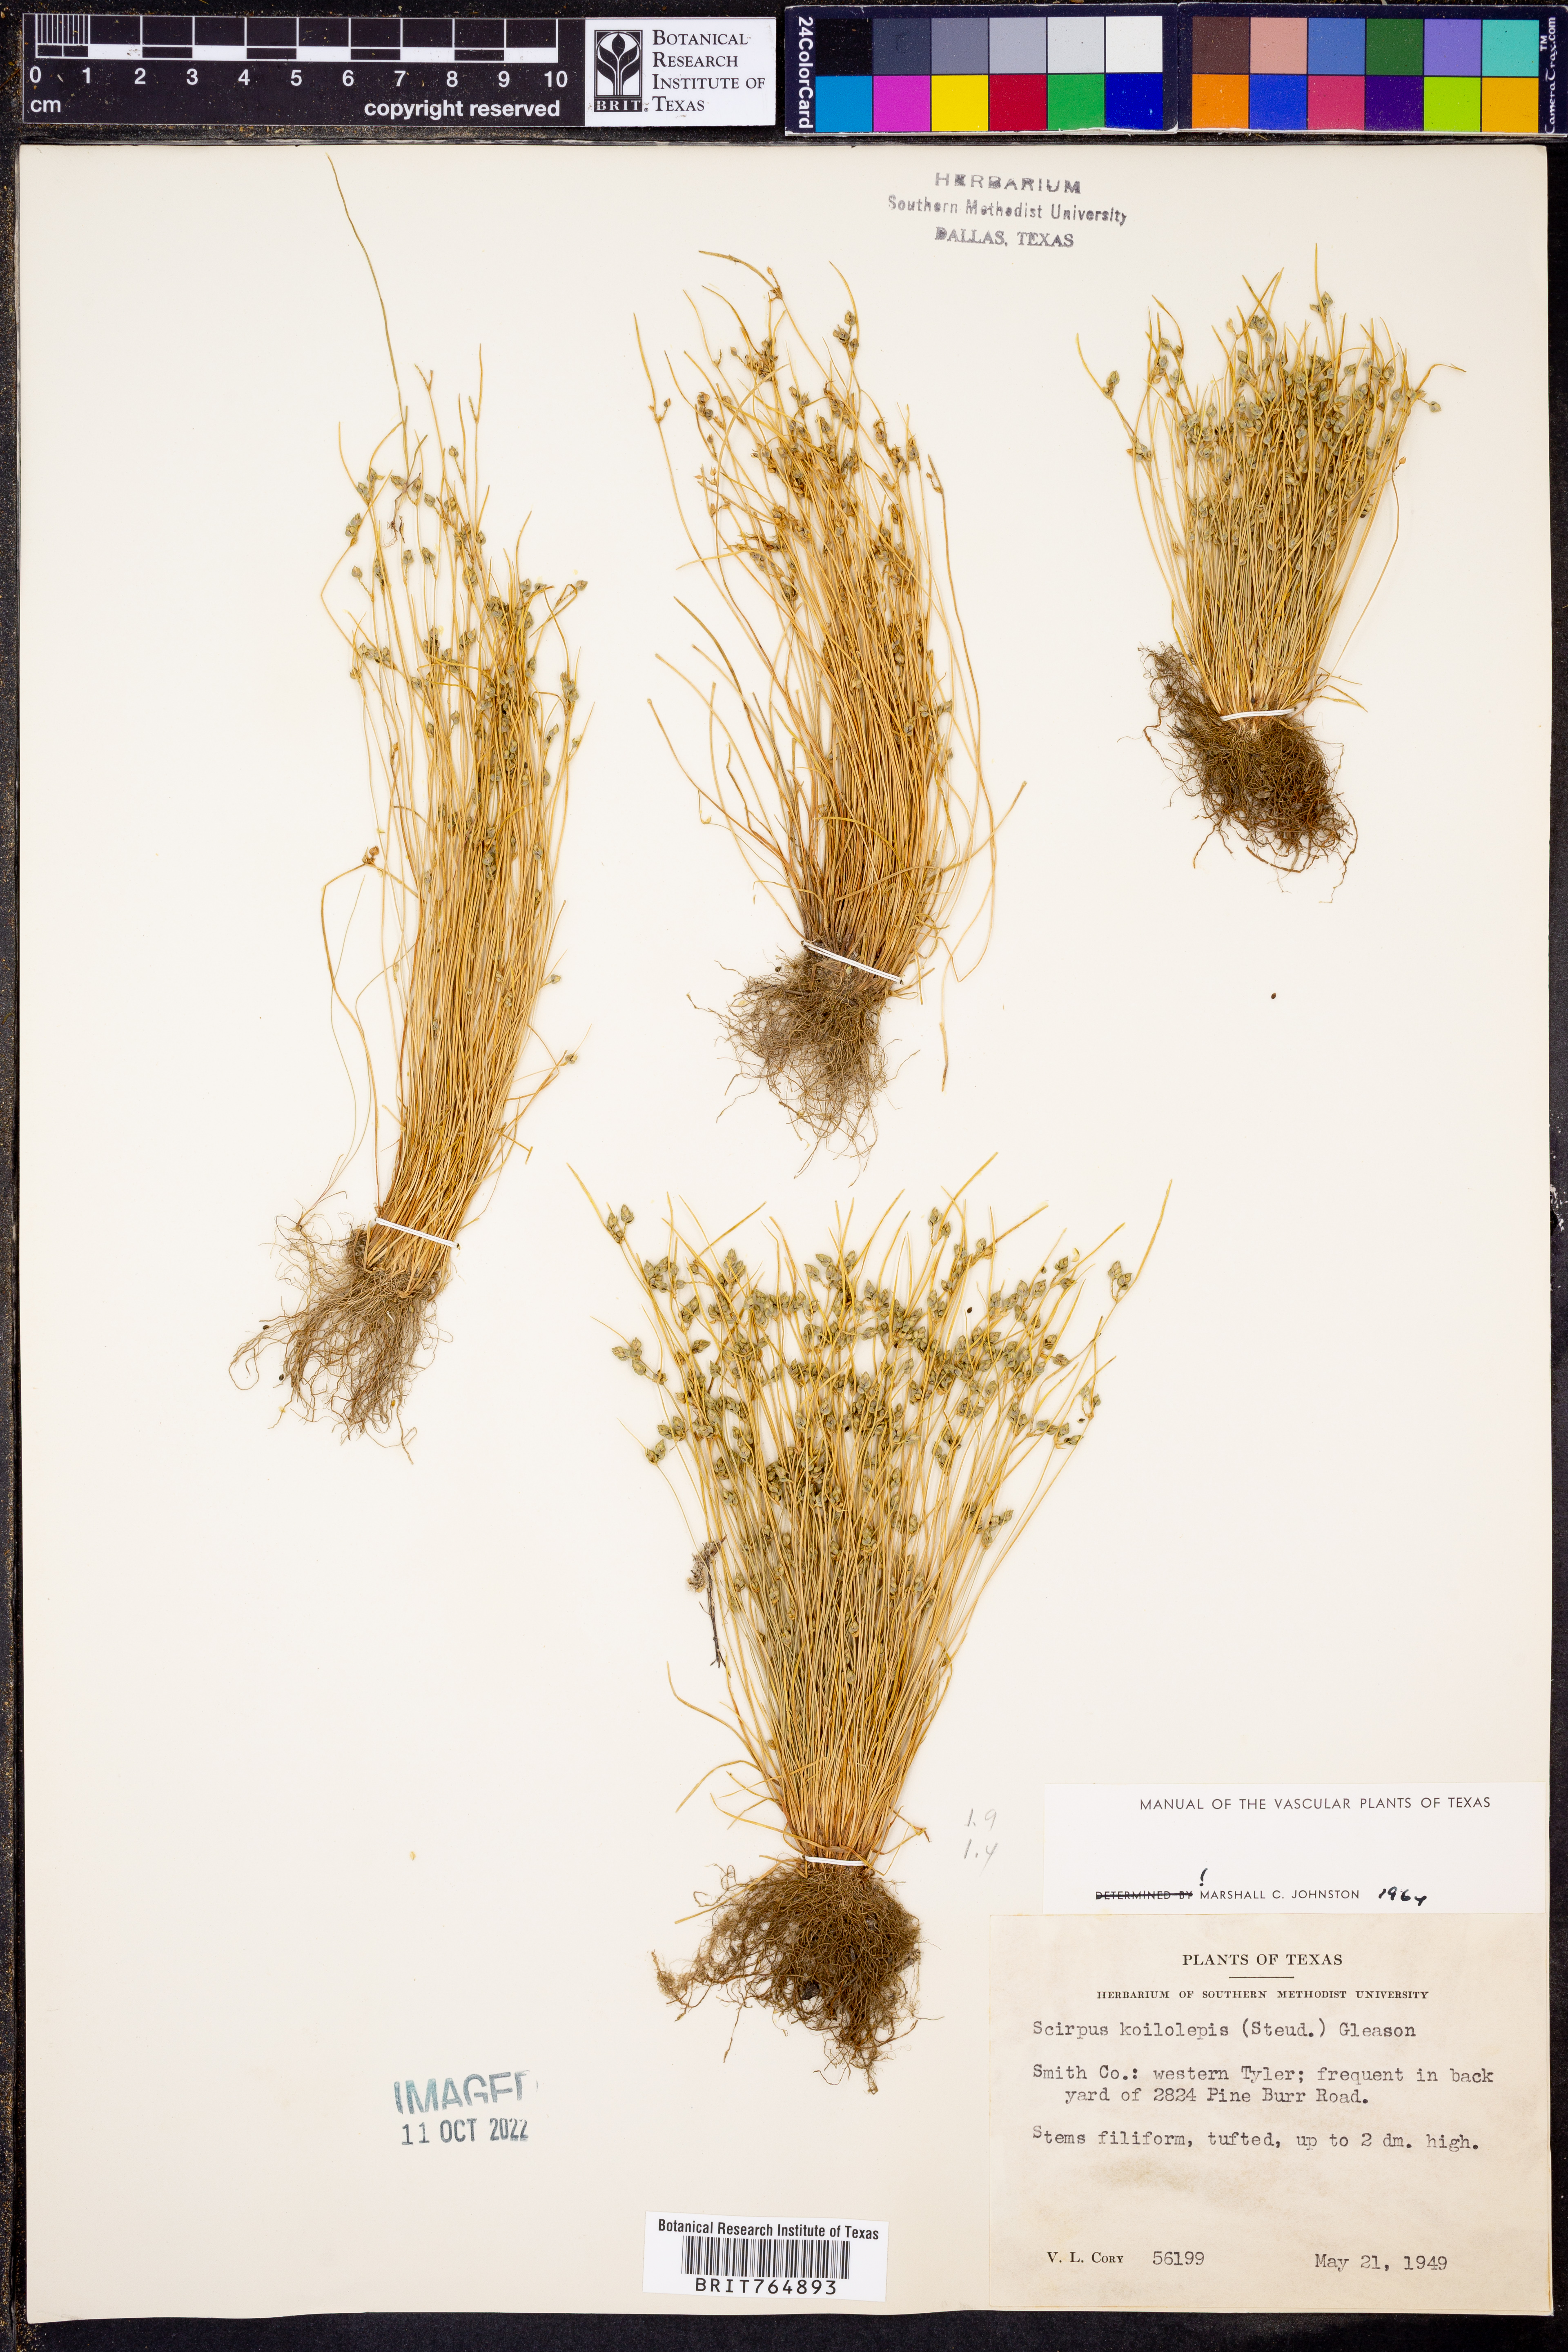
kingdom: Plantae
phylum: Tracheophyta
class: Liliopsida
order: Poales
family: Cyperaceae
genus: Isolepis
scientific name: Isolepis carinata
